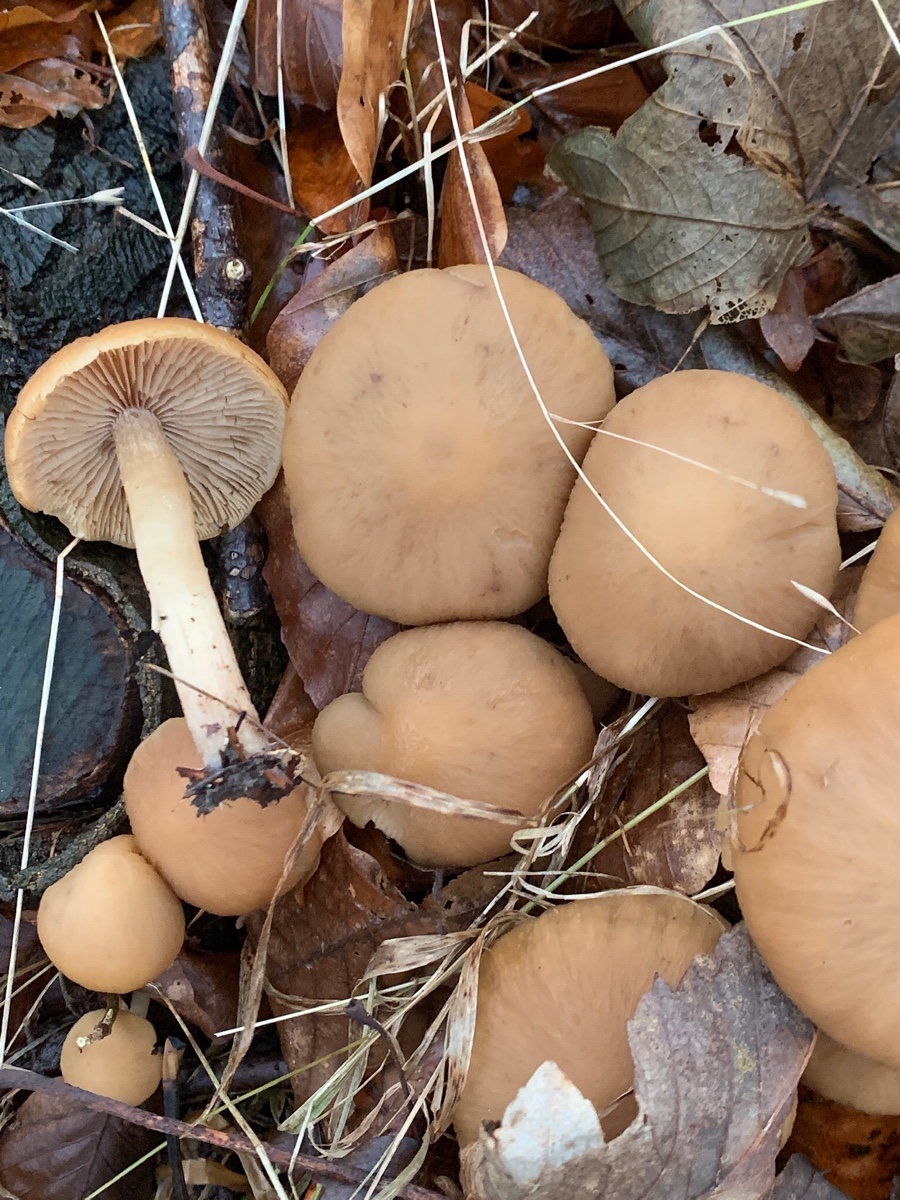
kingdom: Fungi
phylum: Basidiomycota
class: Agaricomycetes
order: Agaricales
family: Psathyrellaceae
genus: Psathyrella
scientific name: Psathyrella piluliformis
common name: lysstokket mørkhat
